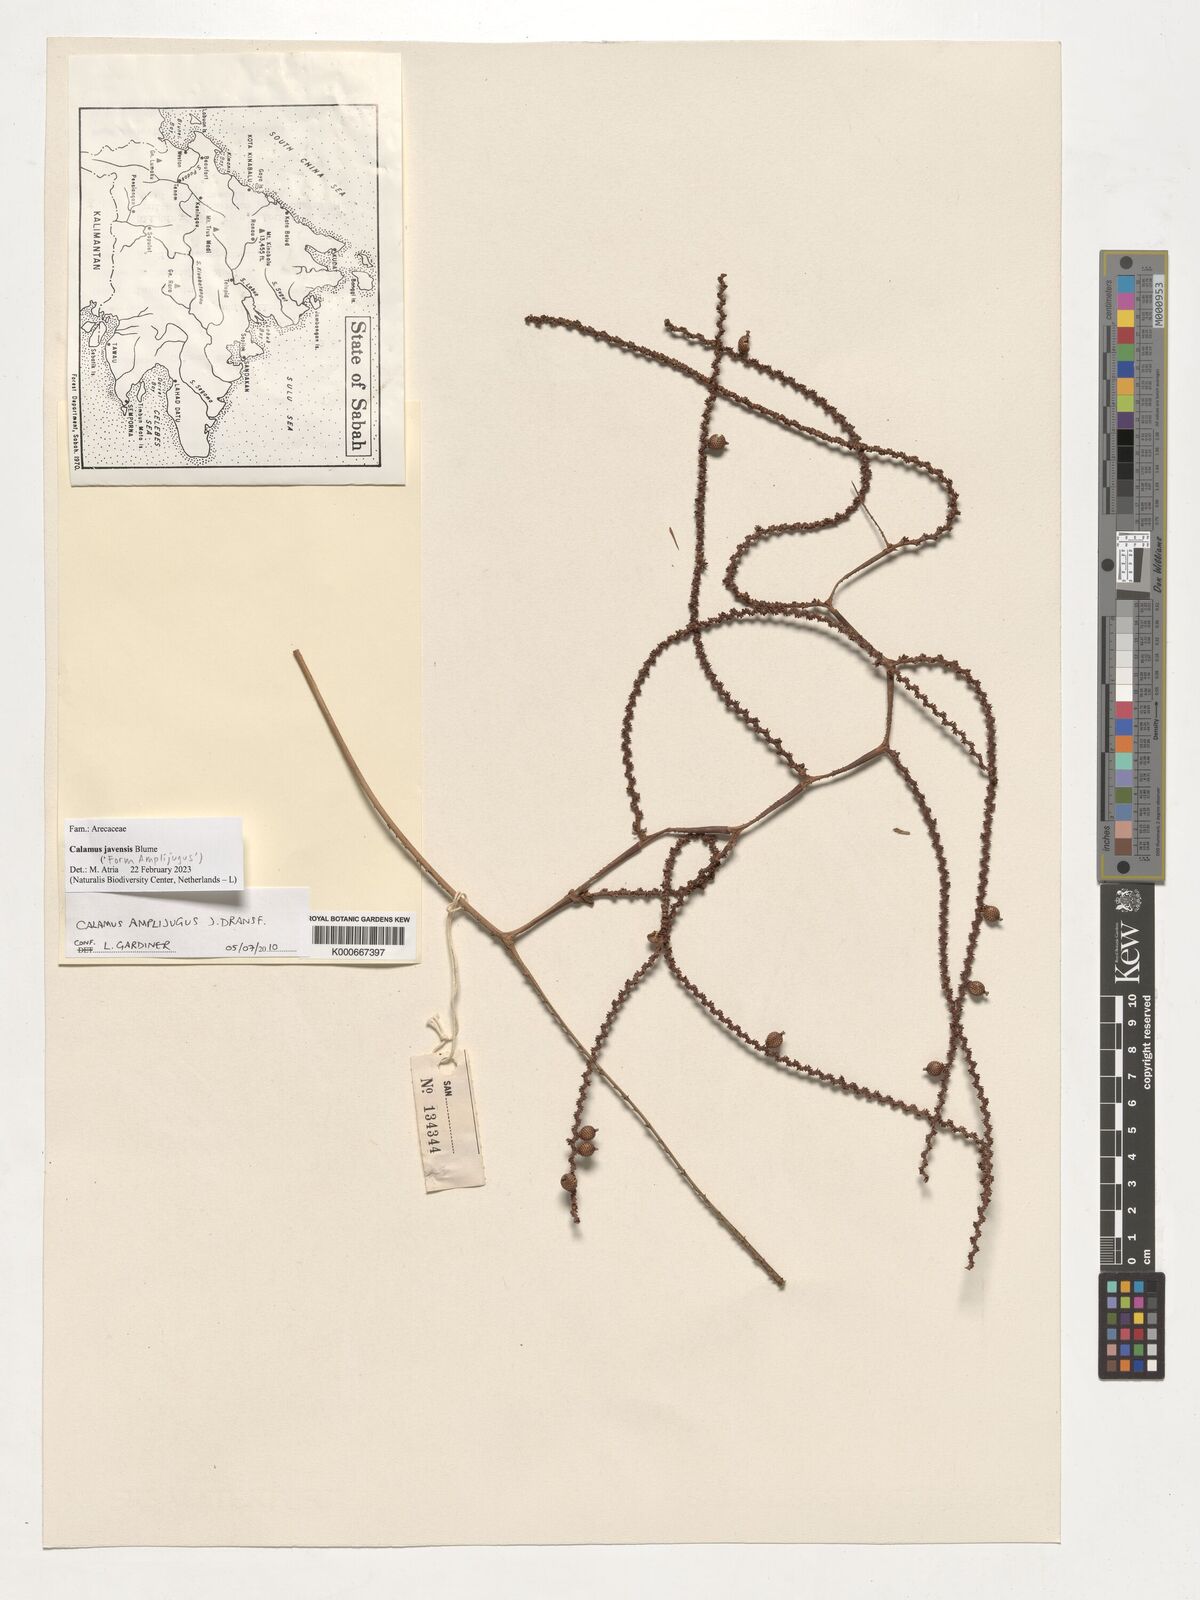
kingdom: Plantae
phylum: Tracheophyta
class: Liliopsida
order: Arecales
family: Arecaceae
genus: Calamus
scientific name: Calamus javensis
